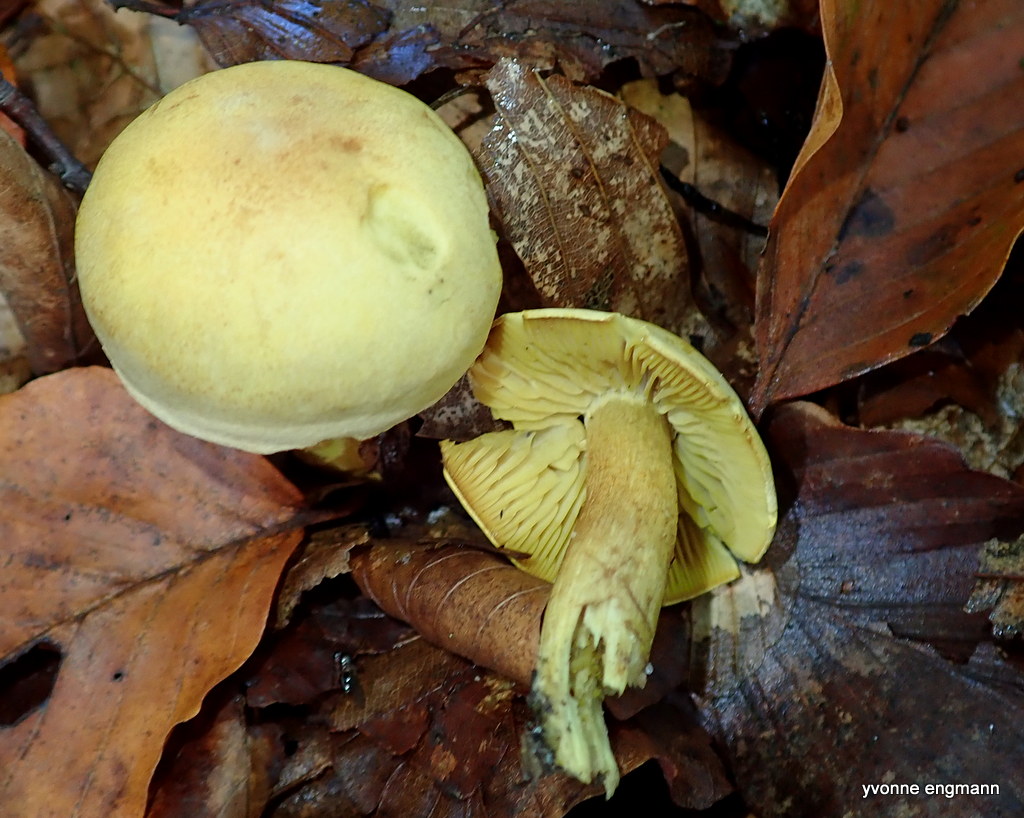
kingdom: Fungi
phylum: Basidiomycota
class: Agaricomycetes
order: Agaricales
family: Tricholomataceae
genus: Tricholoma
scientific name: Tricholoma sulphureum
